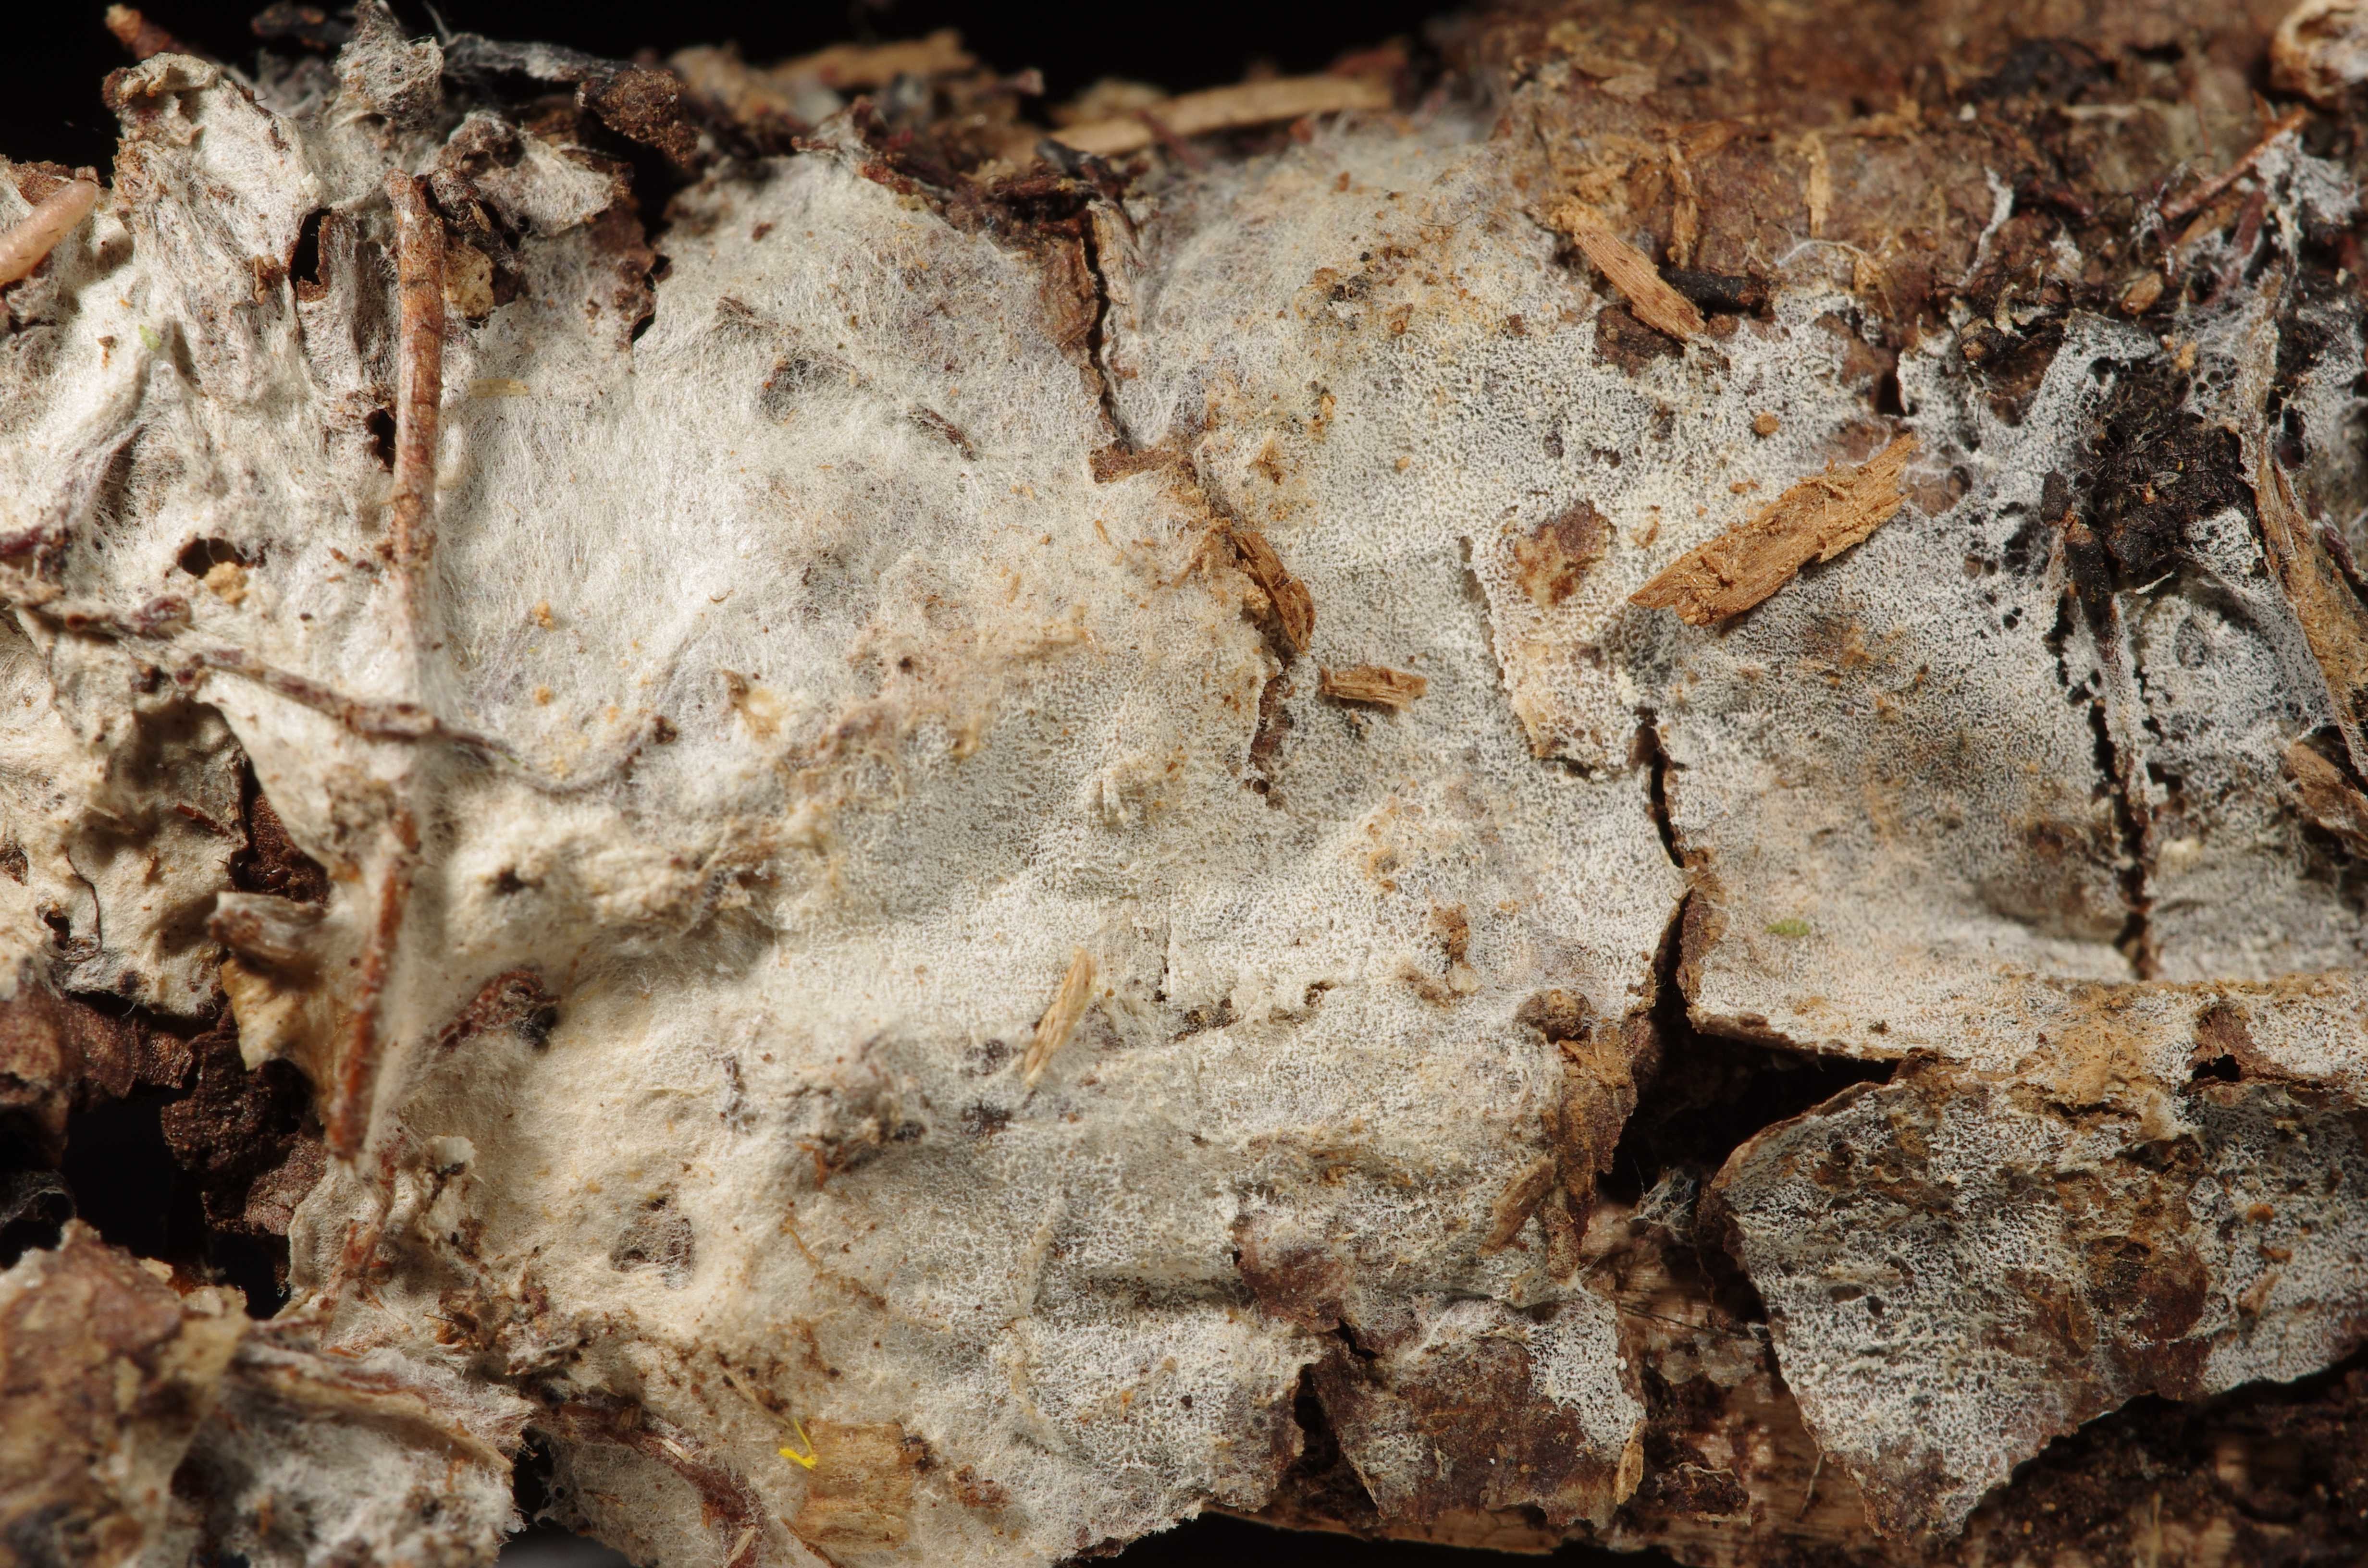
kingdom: Fungi
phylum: Basidiomycota
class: Agaricomycetes
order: Trechisporales
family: Sistotremataceae
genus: Trechispora
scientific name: Trechispora minima
